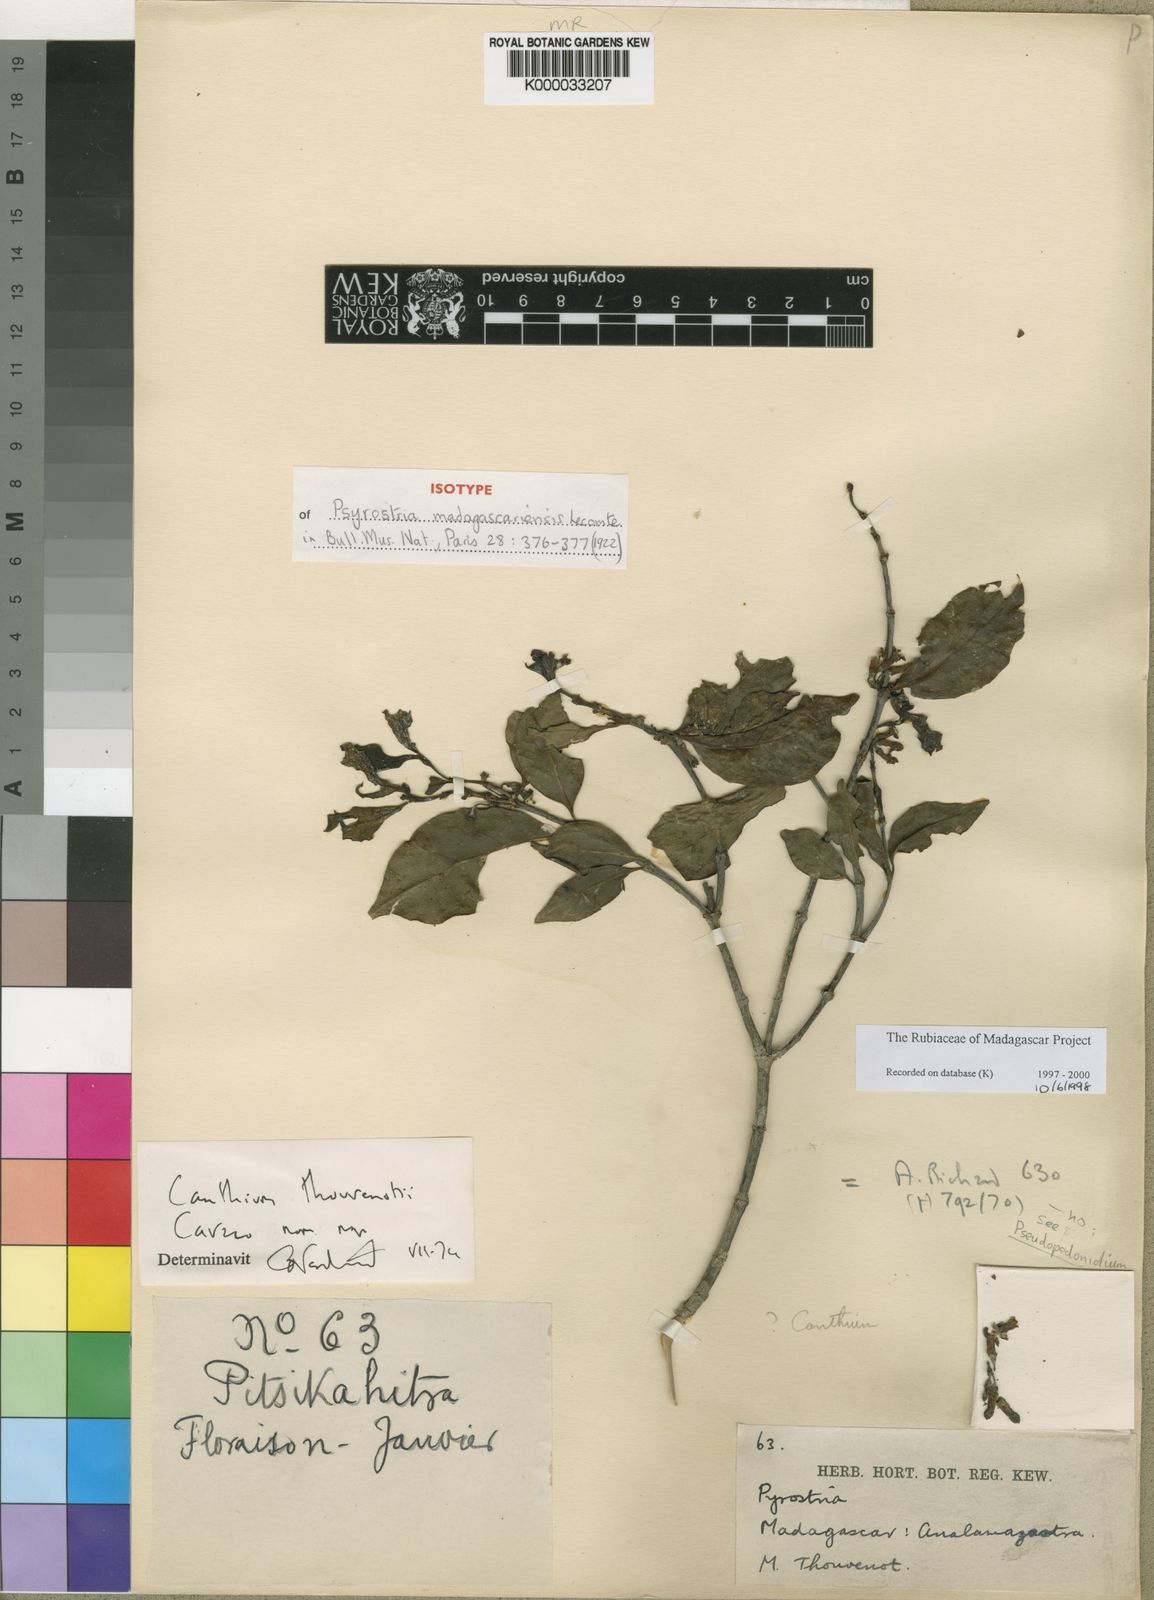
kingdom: Plantae
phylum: Tracheophyta
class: Magnoliopsida
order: Gentianales
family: Rubiaceae
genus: Pyrostria
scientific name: Pyrostria madagascariensis
